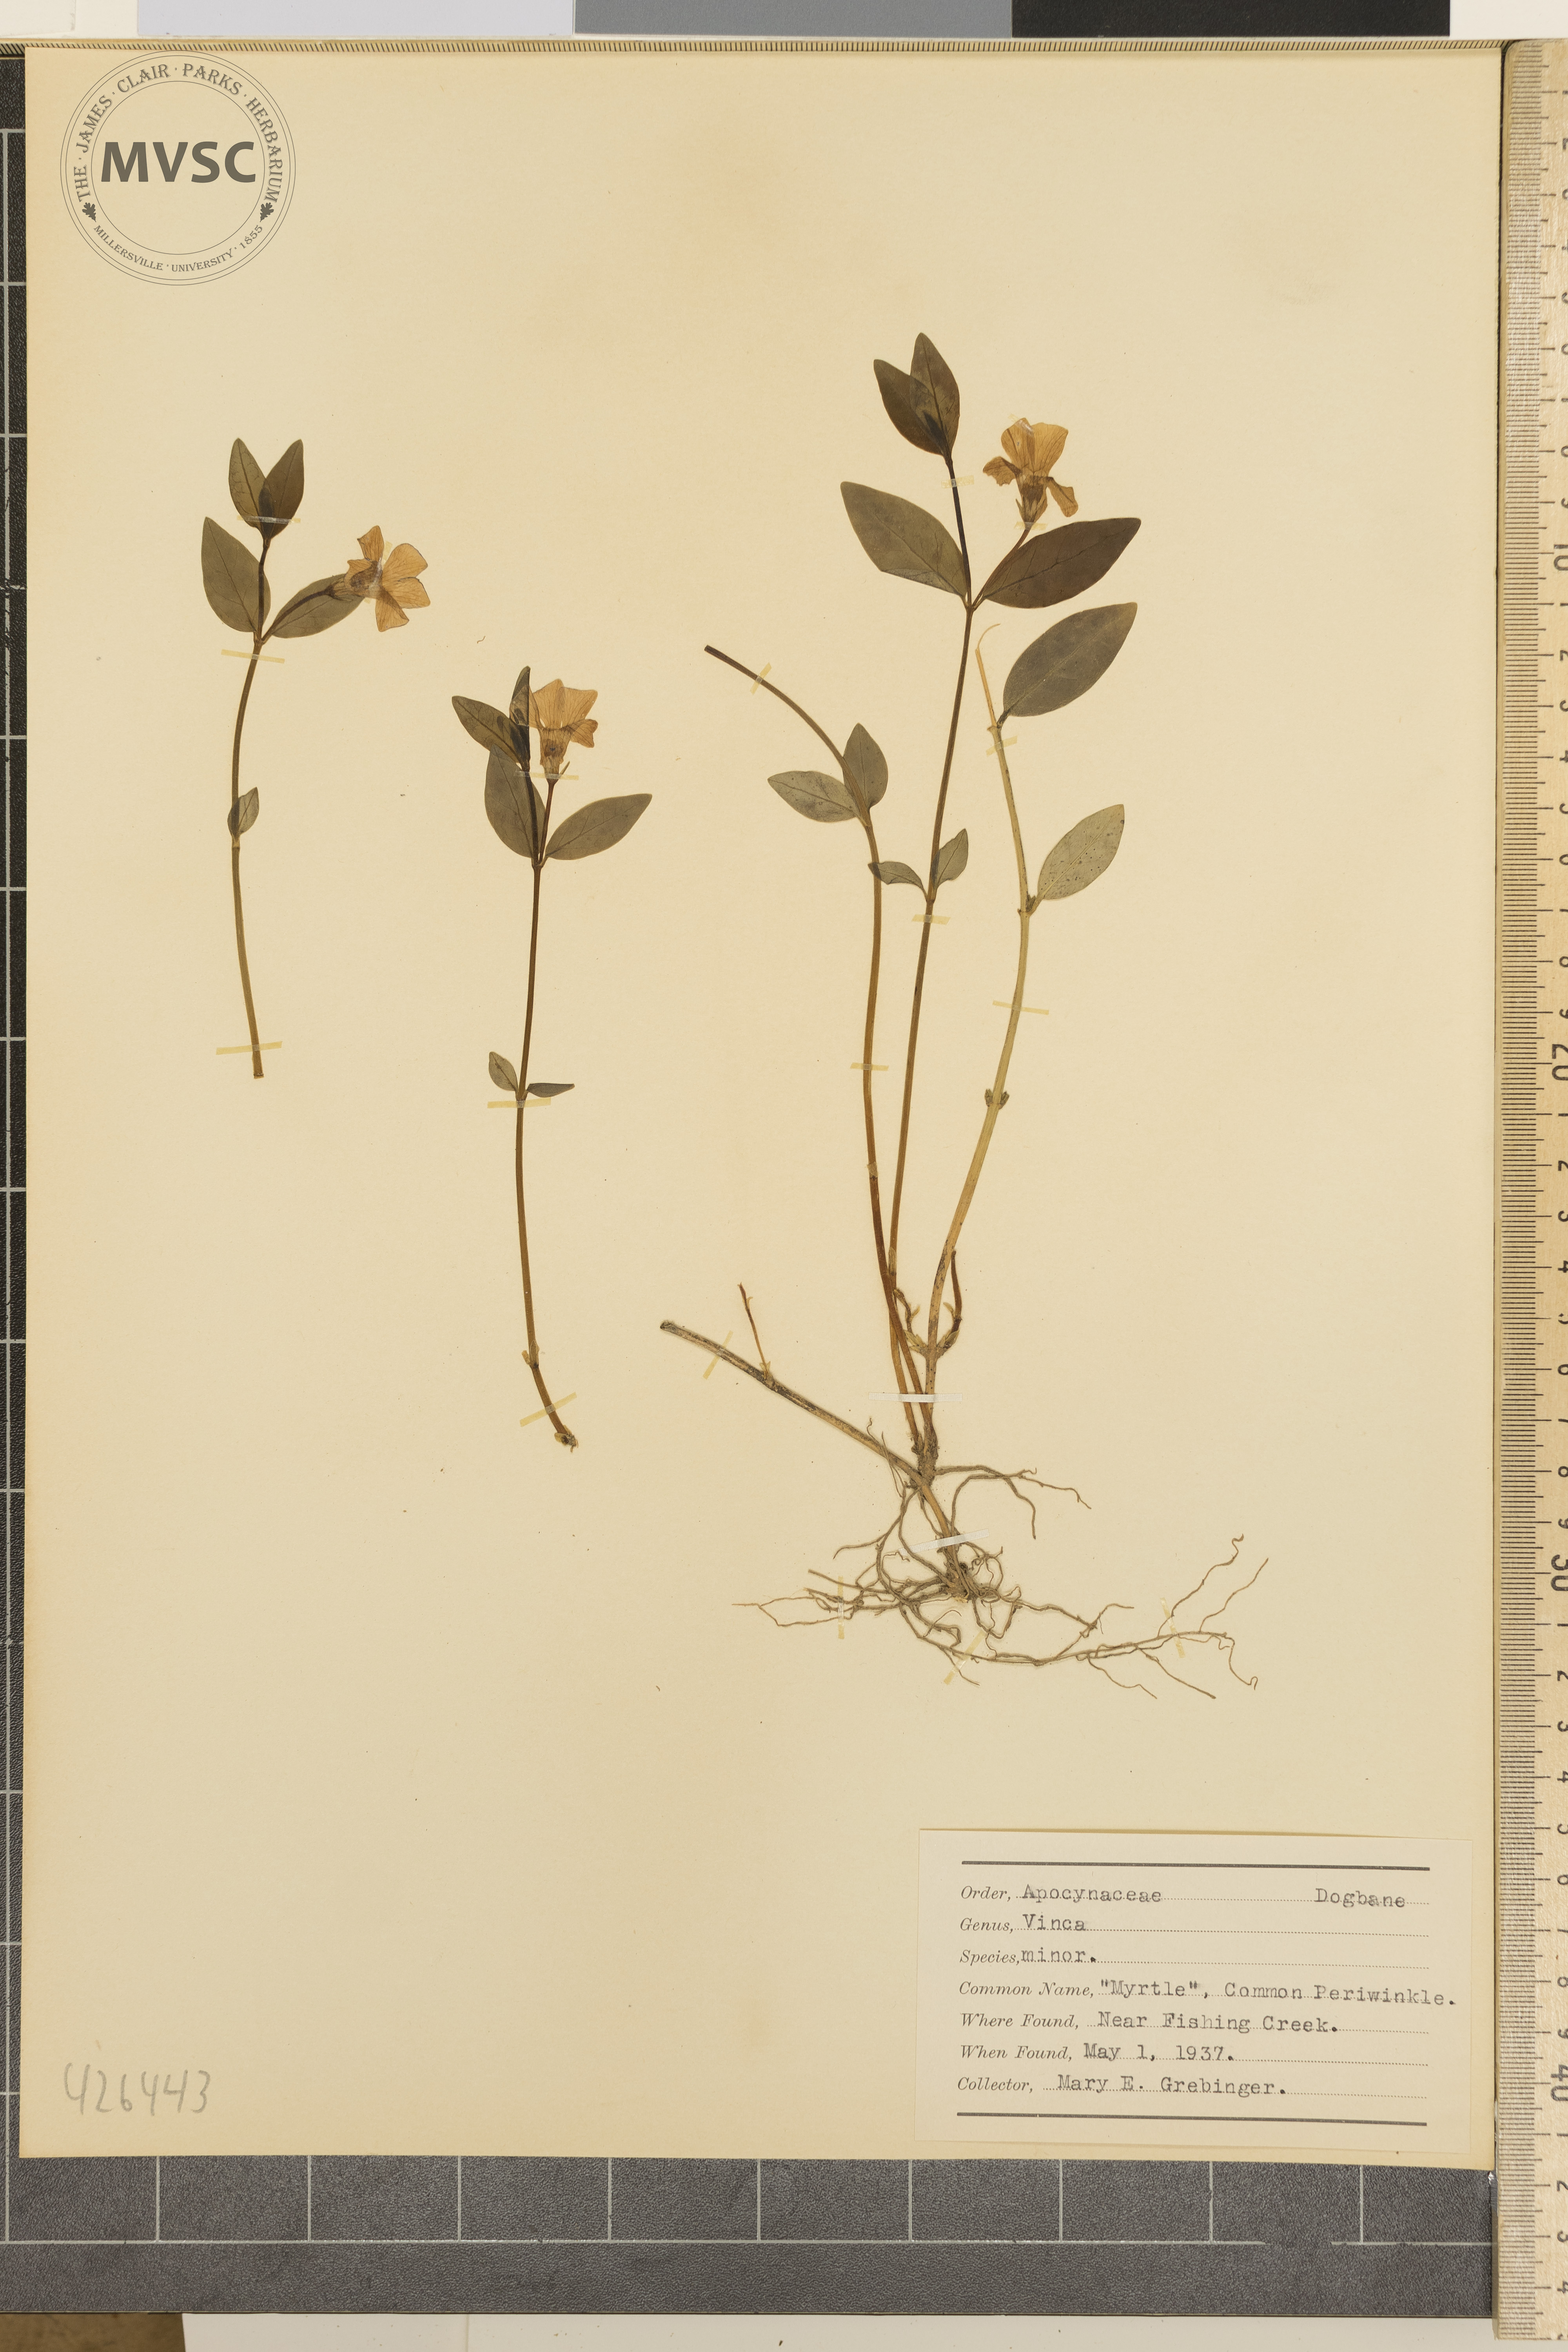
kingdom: Plantae
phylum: Tracheophyta
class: Magnoliopsida
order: Gentianales
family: Apocynaceae
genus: Vinca
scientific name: Vinca minor
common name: Common periwinkle
